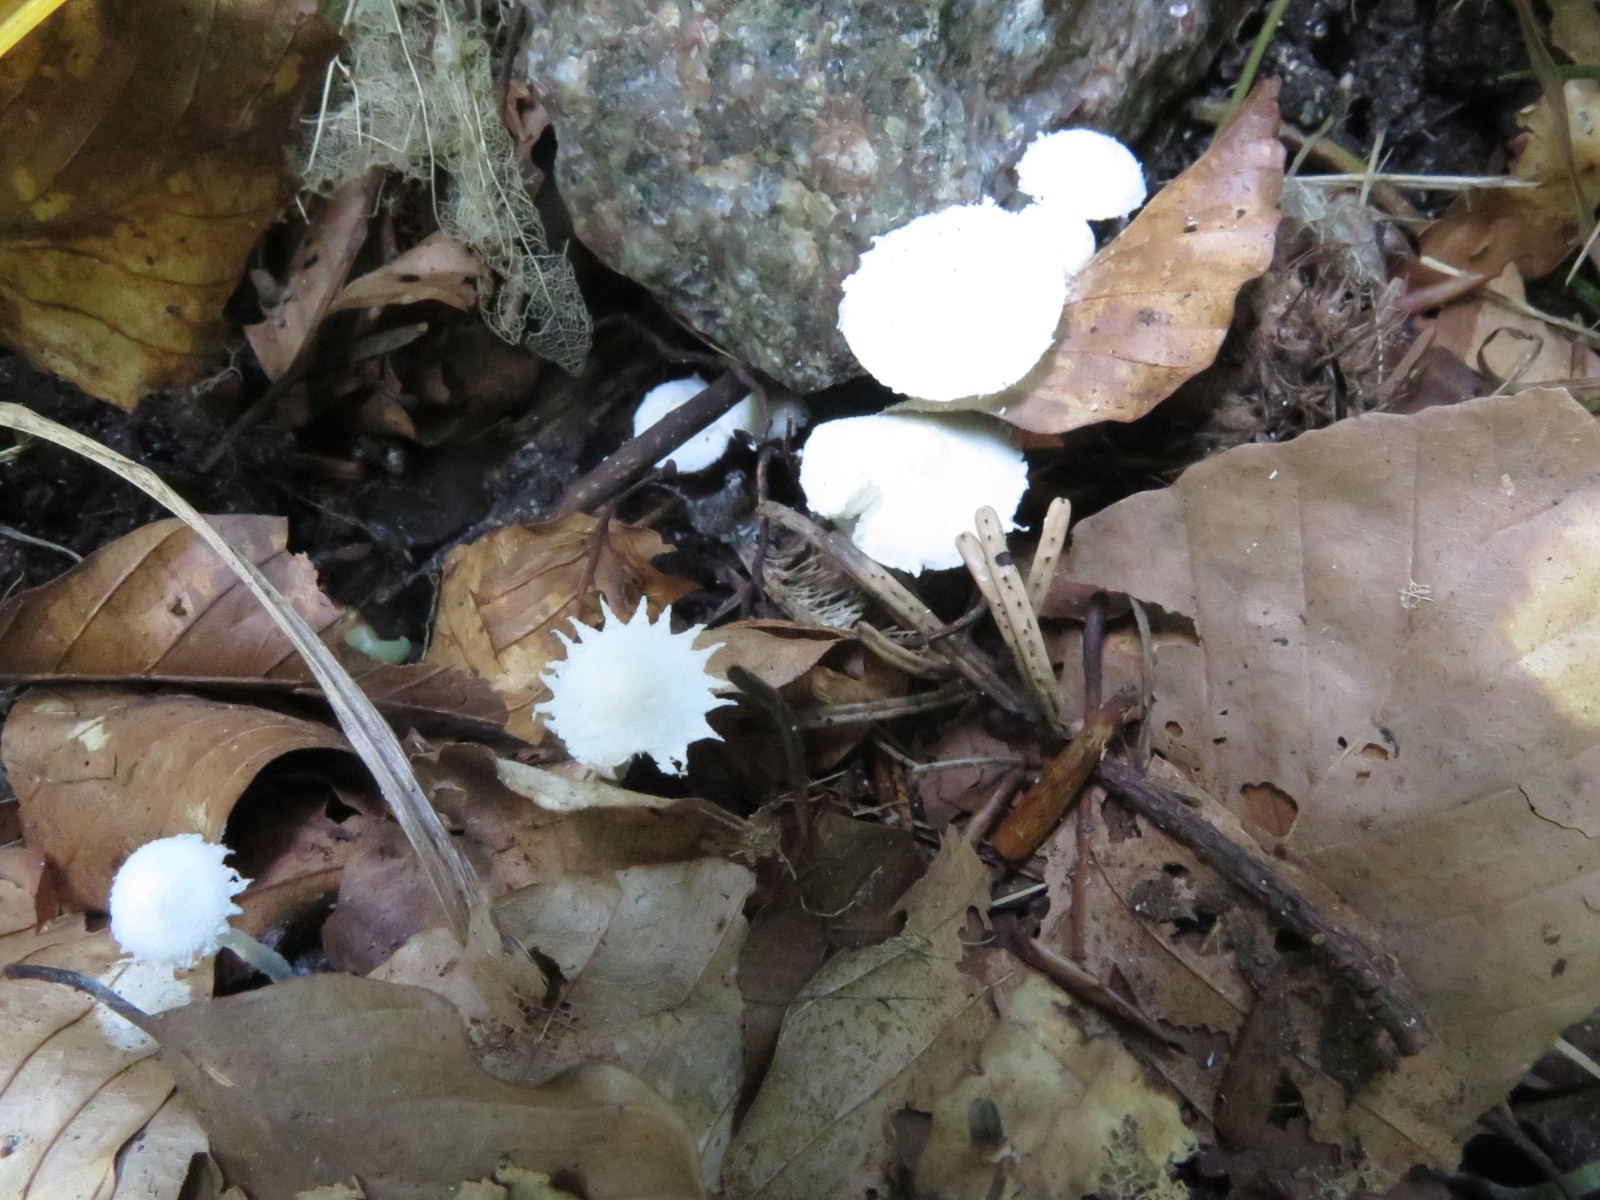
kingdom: Fungi
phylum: Basidiomycota
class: Agaricomycetes
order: Agaricales
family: Agaricaceae
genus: Cystolepiota
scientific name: Cystolepiota seminuda
